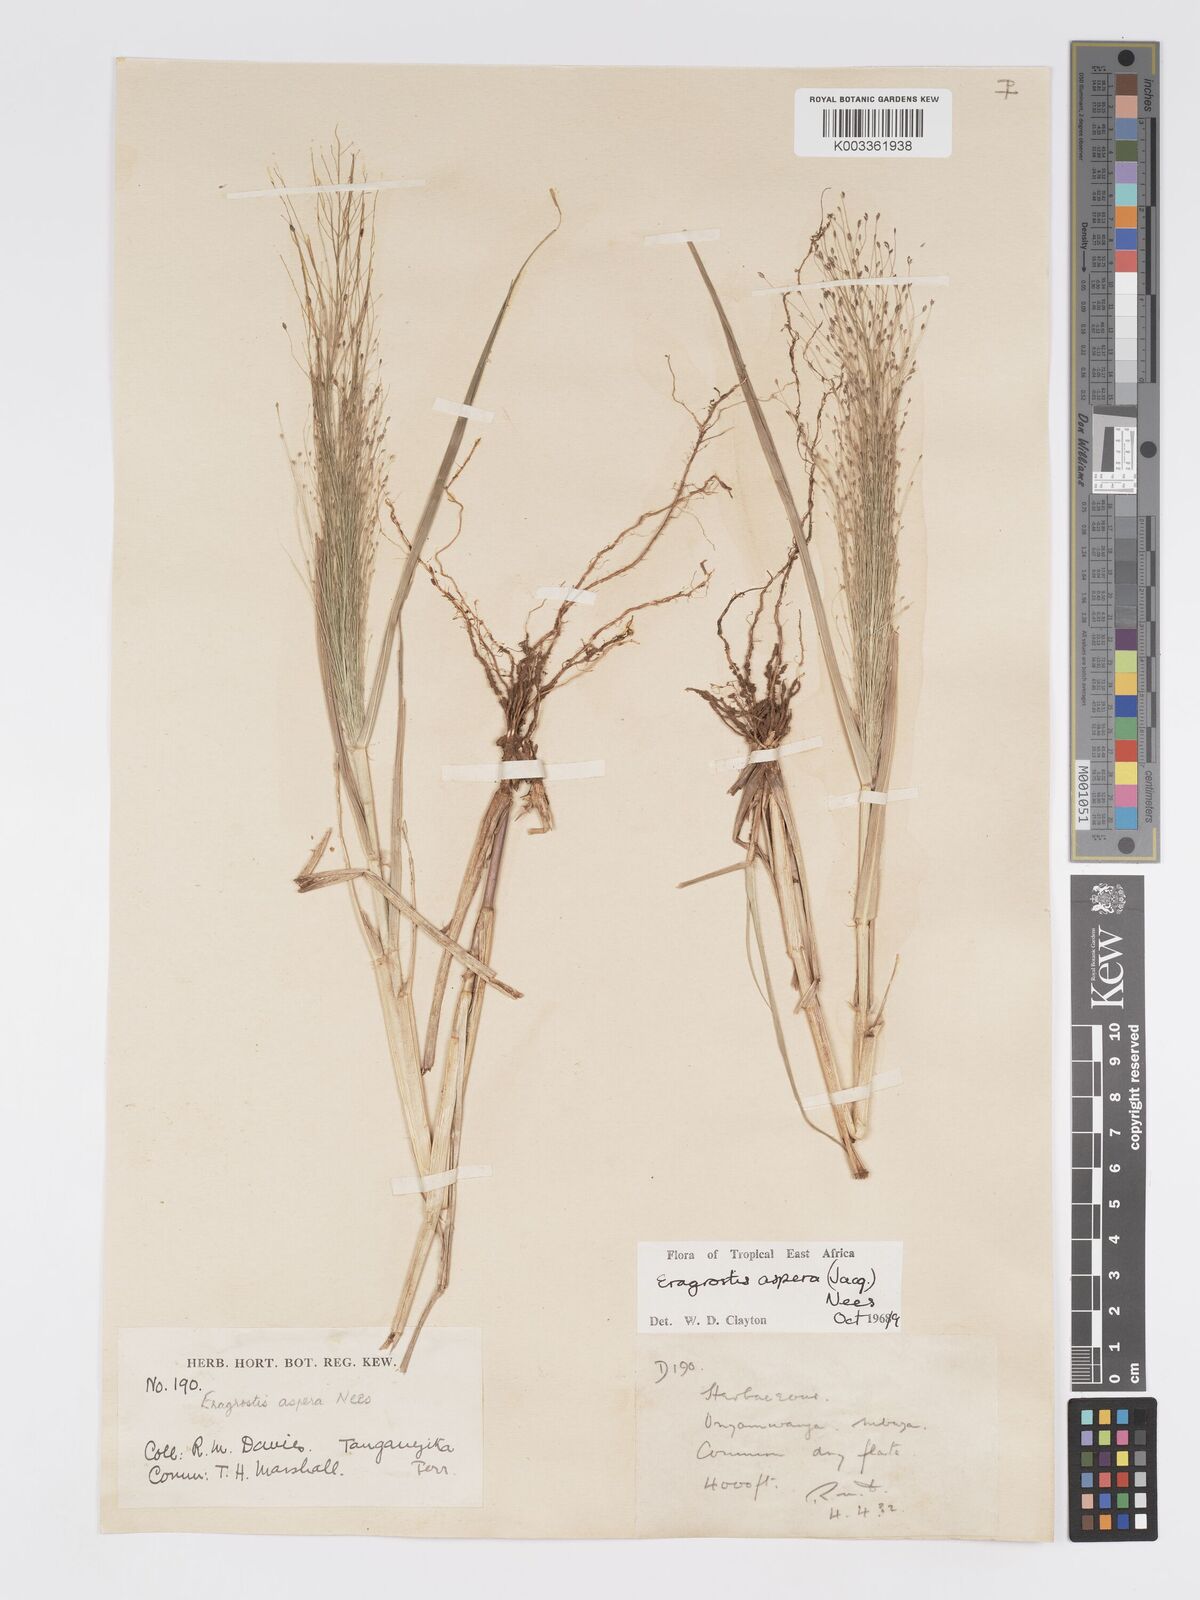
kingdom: Plantae
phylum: Tracheophyta
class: Liliopsida
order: Poales
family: Poaceae
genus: Eragrostis
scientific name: Eragrostis aspera
